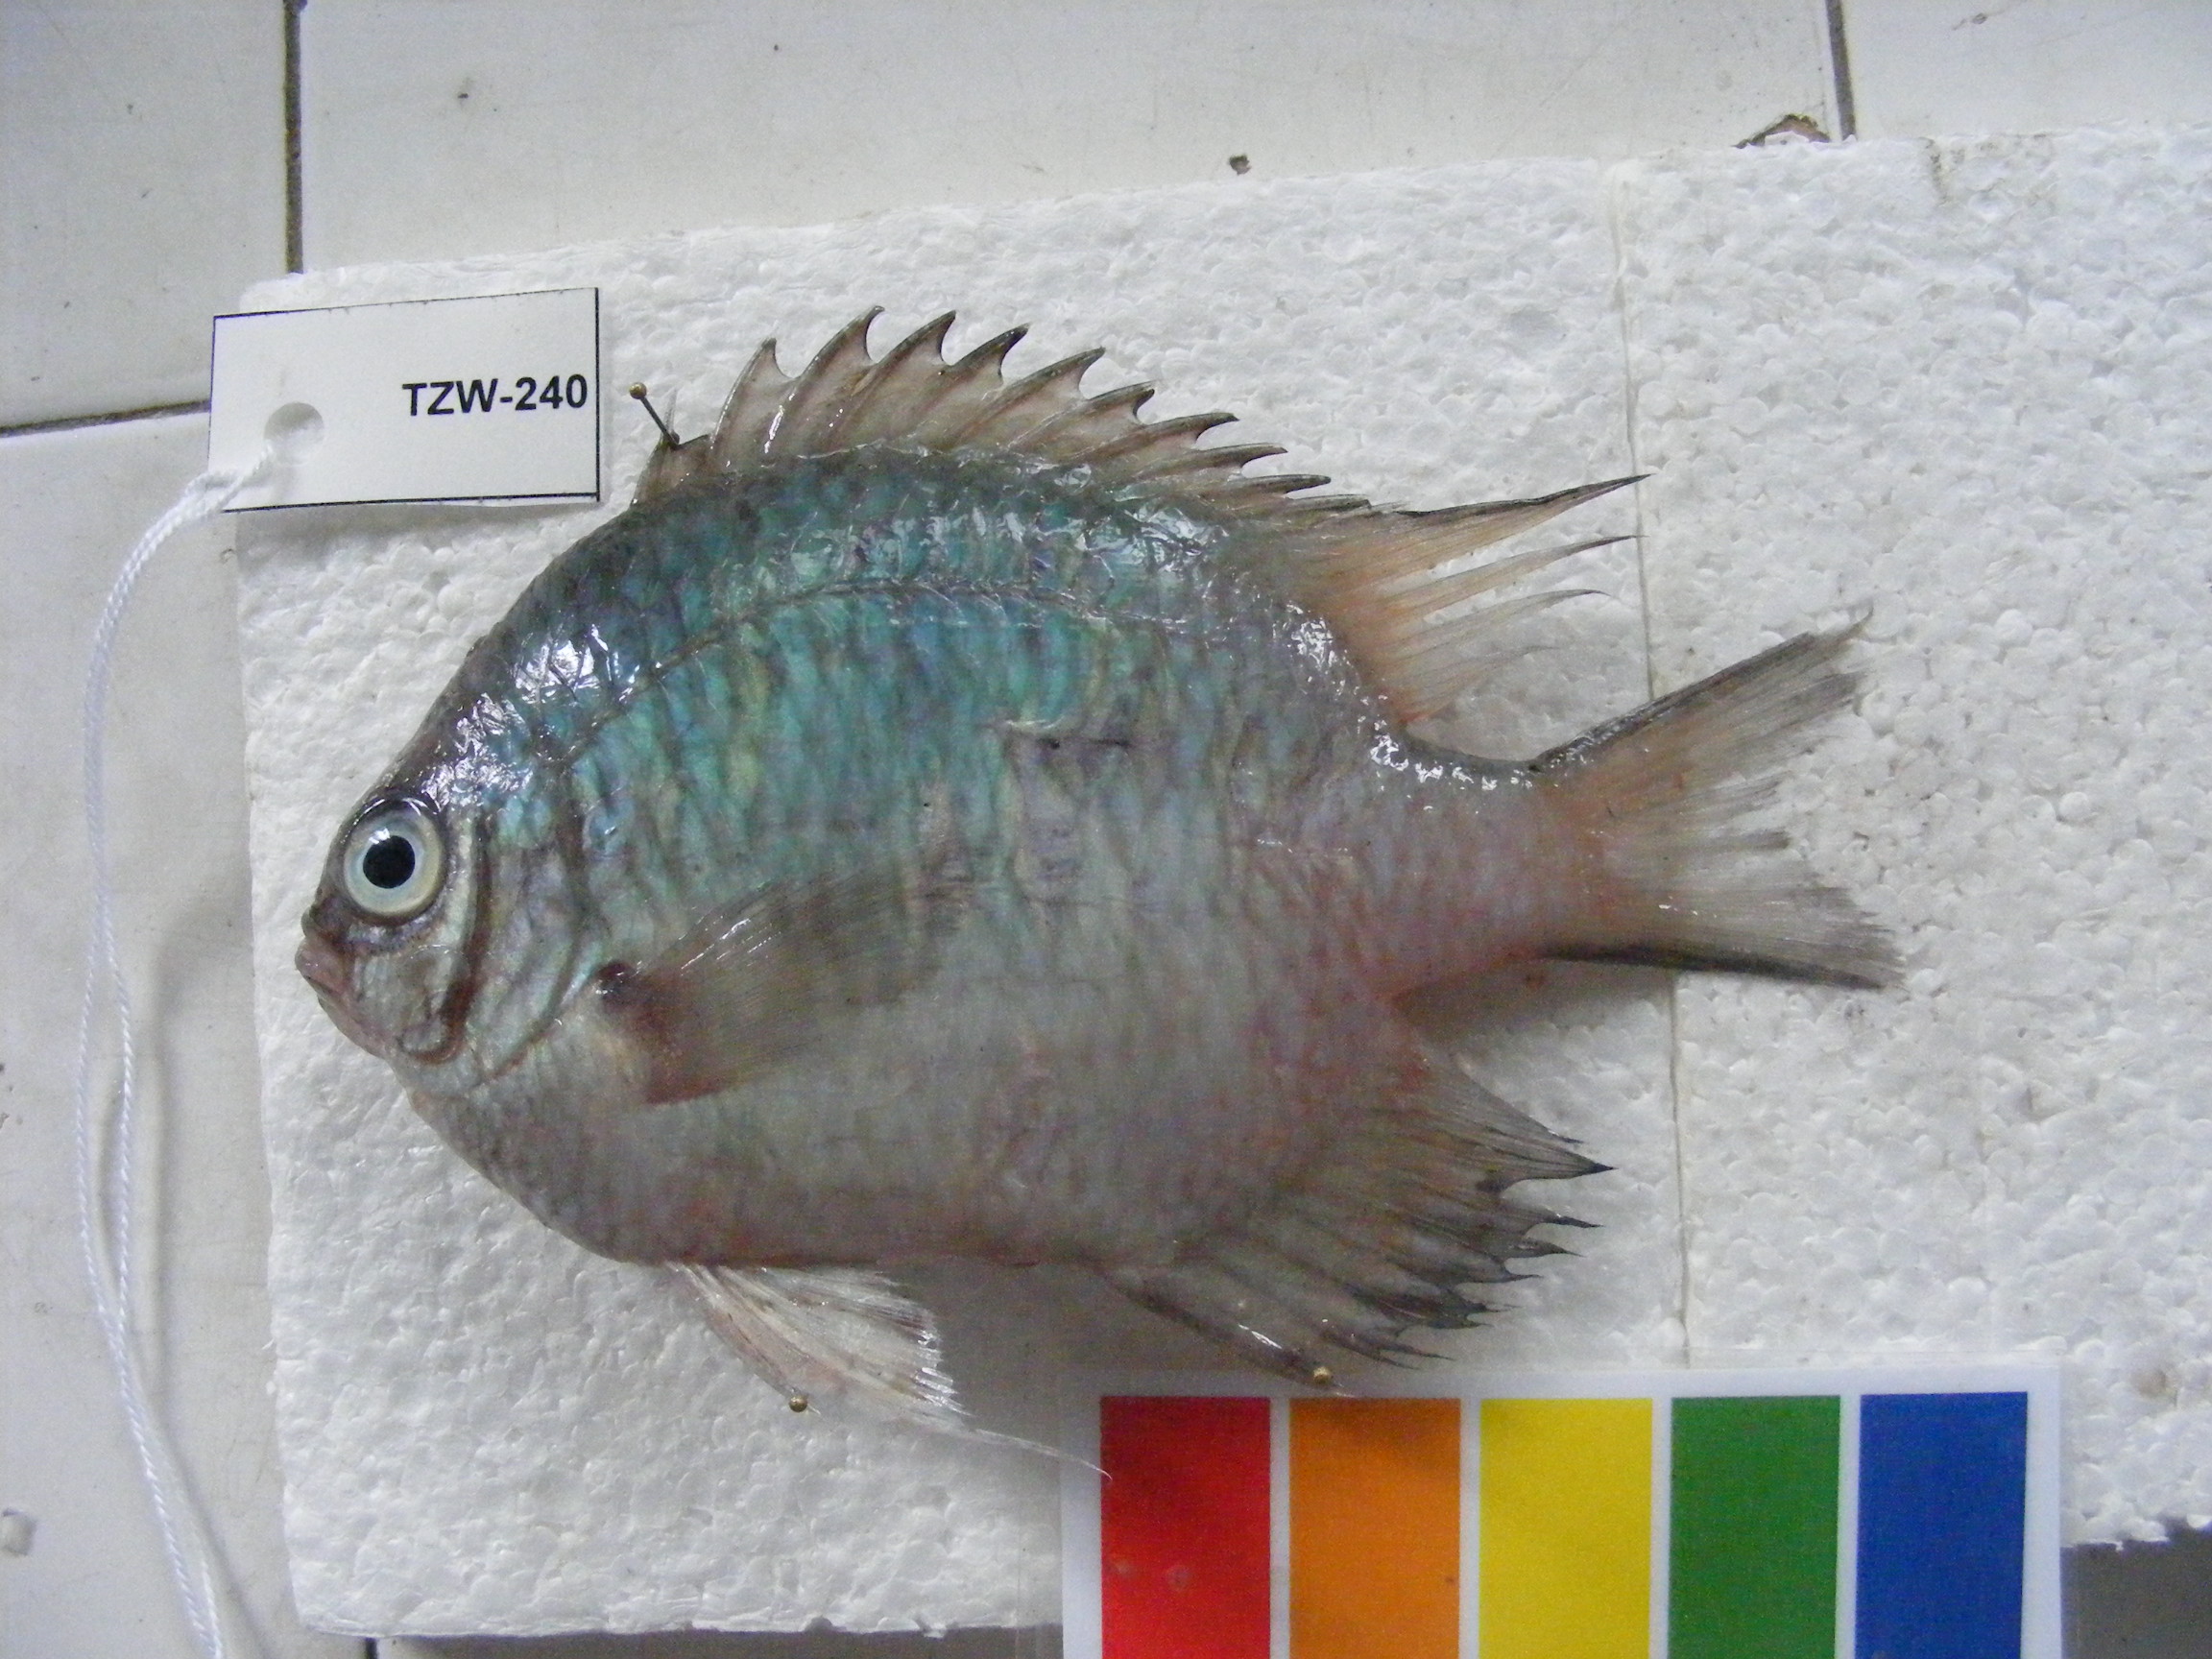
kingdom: Animalia
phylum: Chordata
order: Perciformes
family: Pomacentridae
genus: Amblyglyphidodon
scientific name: Amblyglyphidodon indicus
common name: Maldives damselfish
